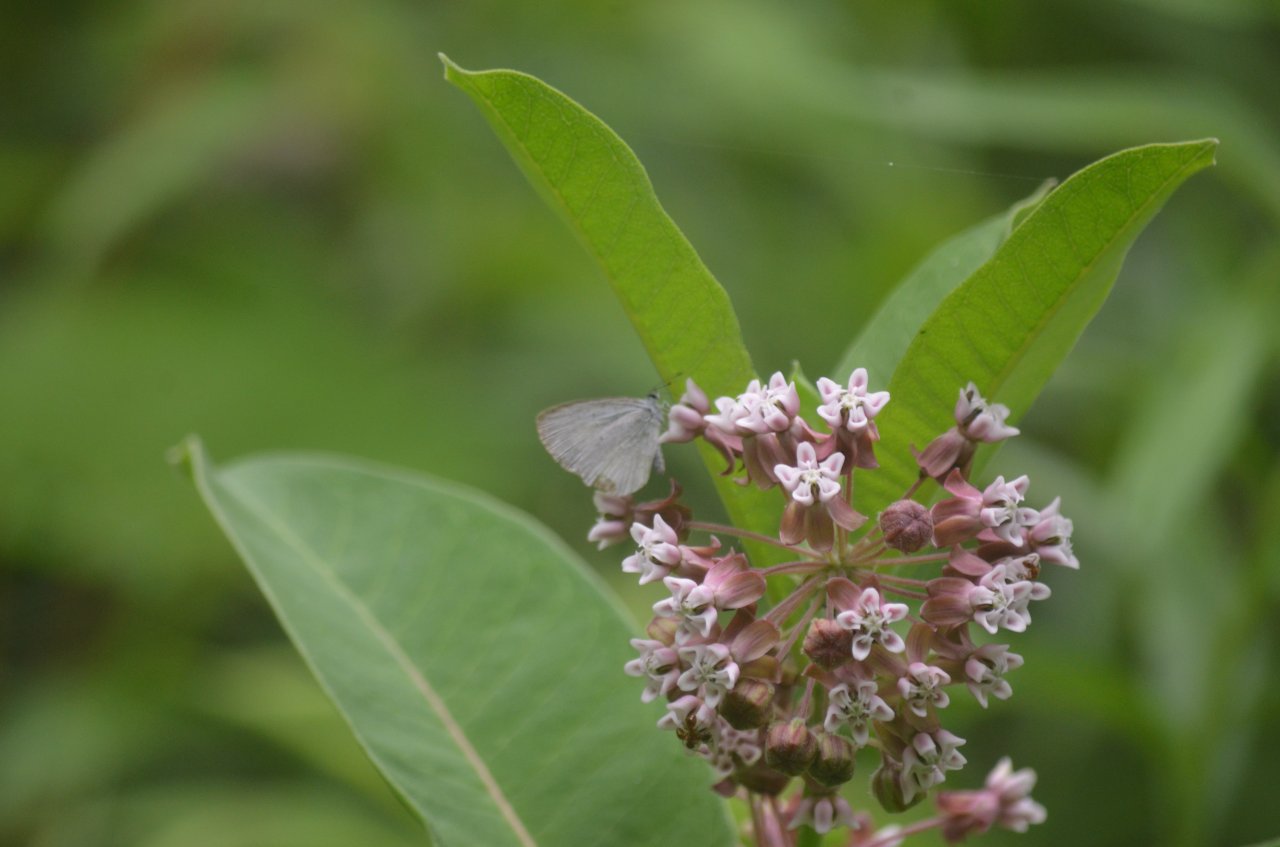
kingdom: Animalia
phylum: Arthropoda
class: Insecta
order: Lepidoptera
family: Lycaenidae
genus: Celastrina
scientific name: Celastrina
